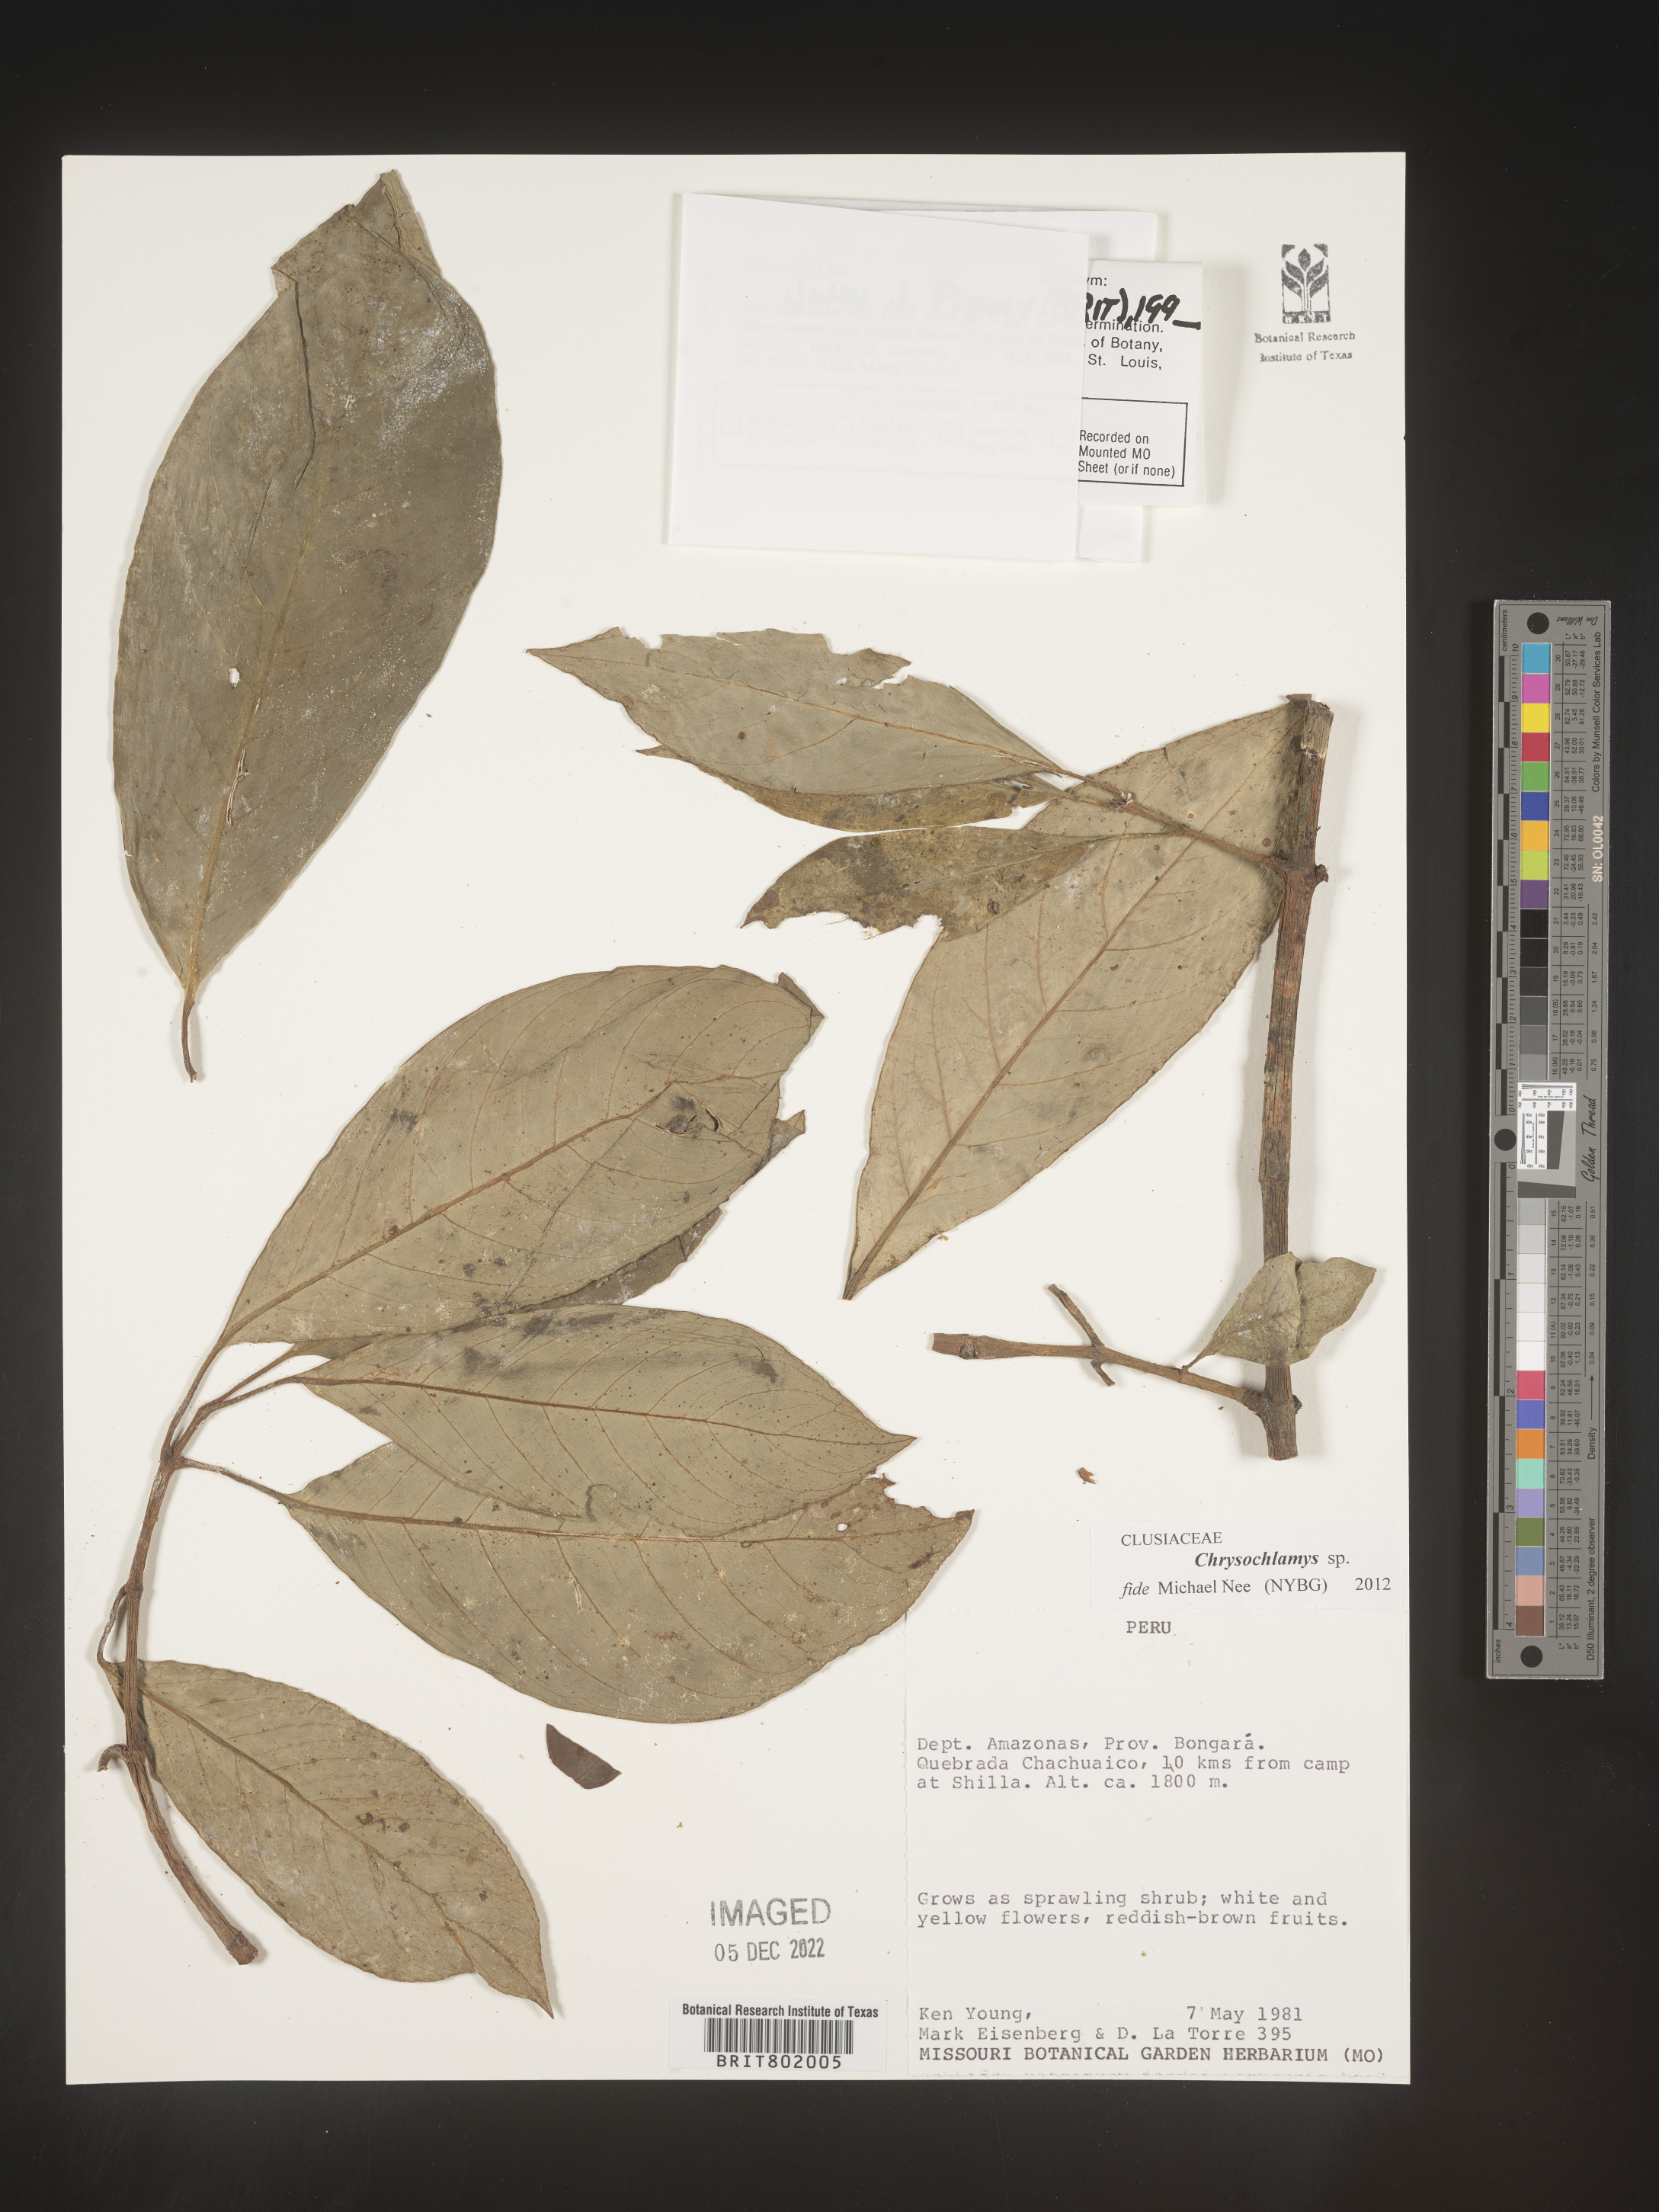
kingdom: Plantae
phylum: Tracheophyta
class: Magnoliopsida
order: Malpighiales
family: Clusiaceae
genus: Chrysochlamys
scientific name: Chrysochlamys
